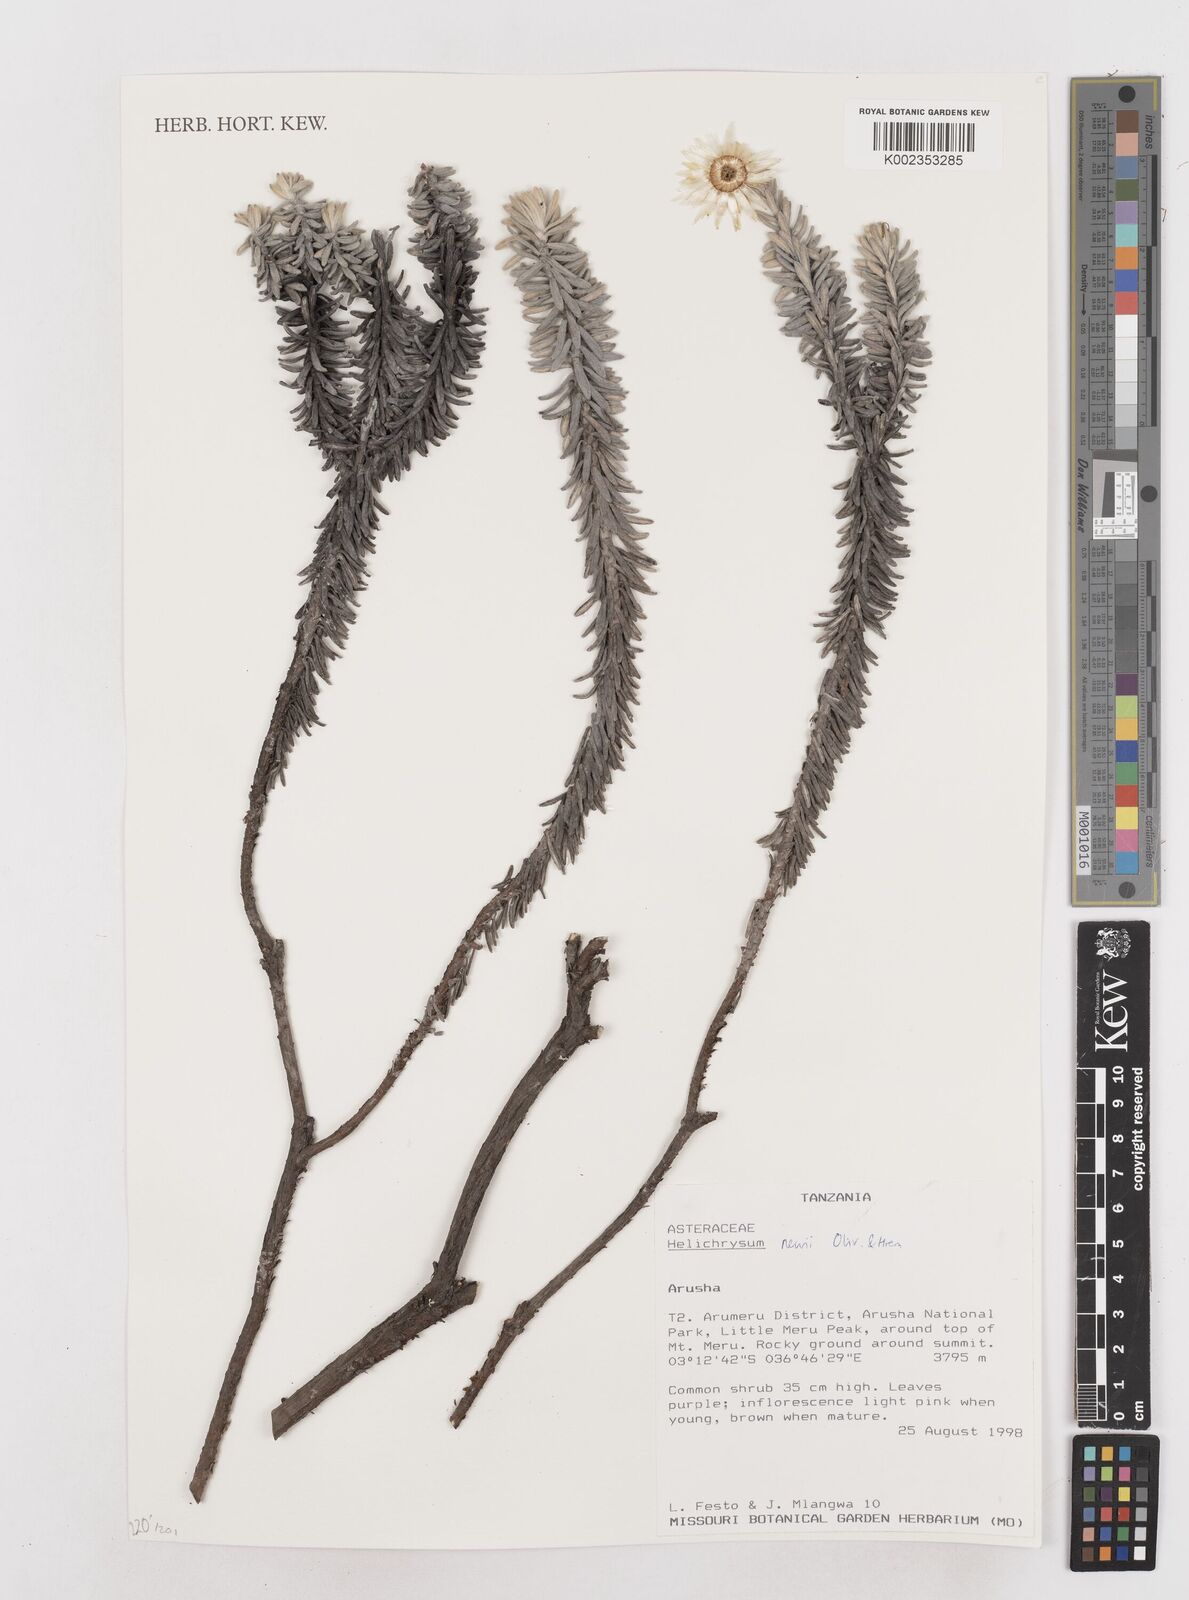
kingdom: Plantae
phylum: Tracheophyta
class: Magnoliopsida
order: Asterales
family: Asteraceae
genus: Helichrysum
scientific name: Helichrysum newii
